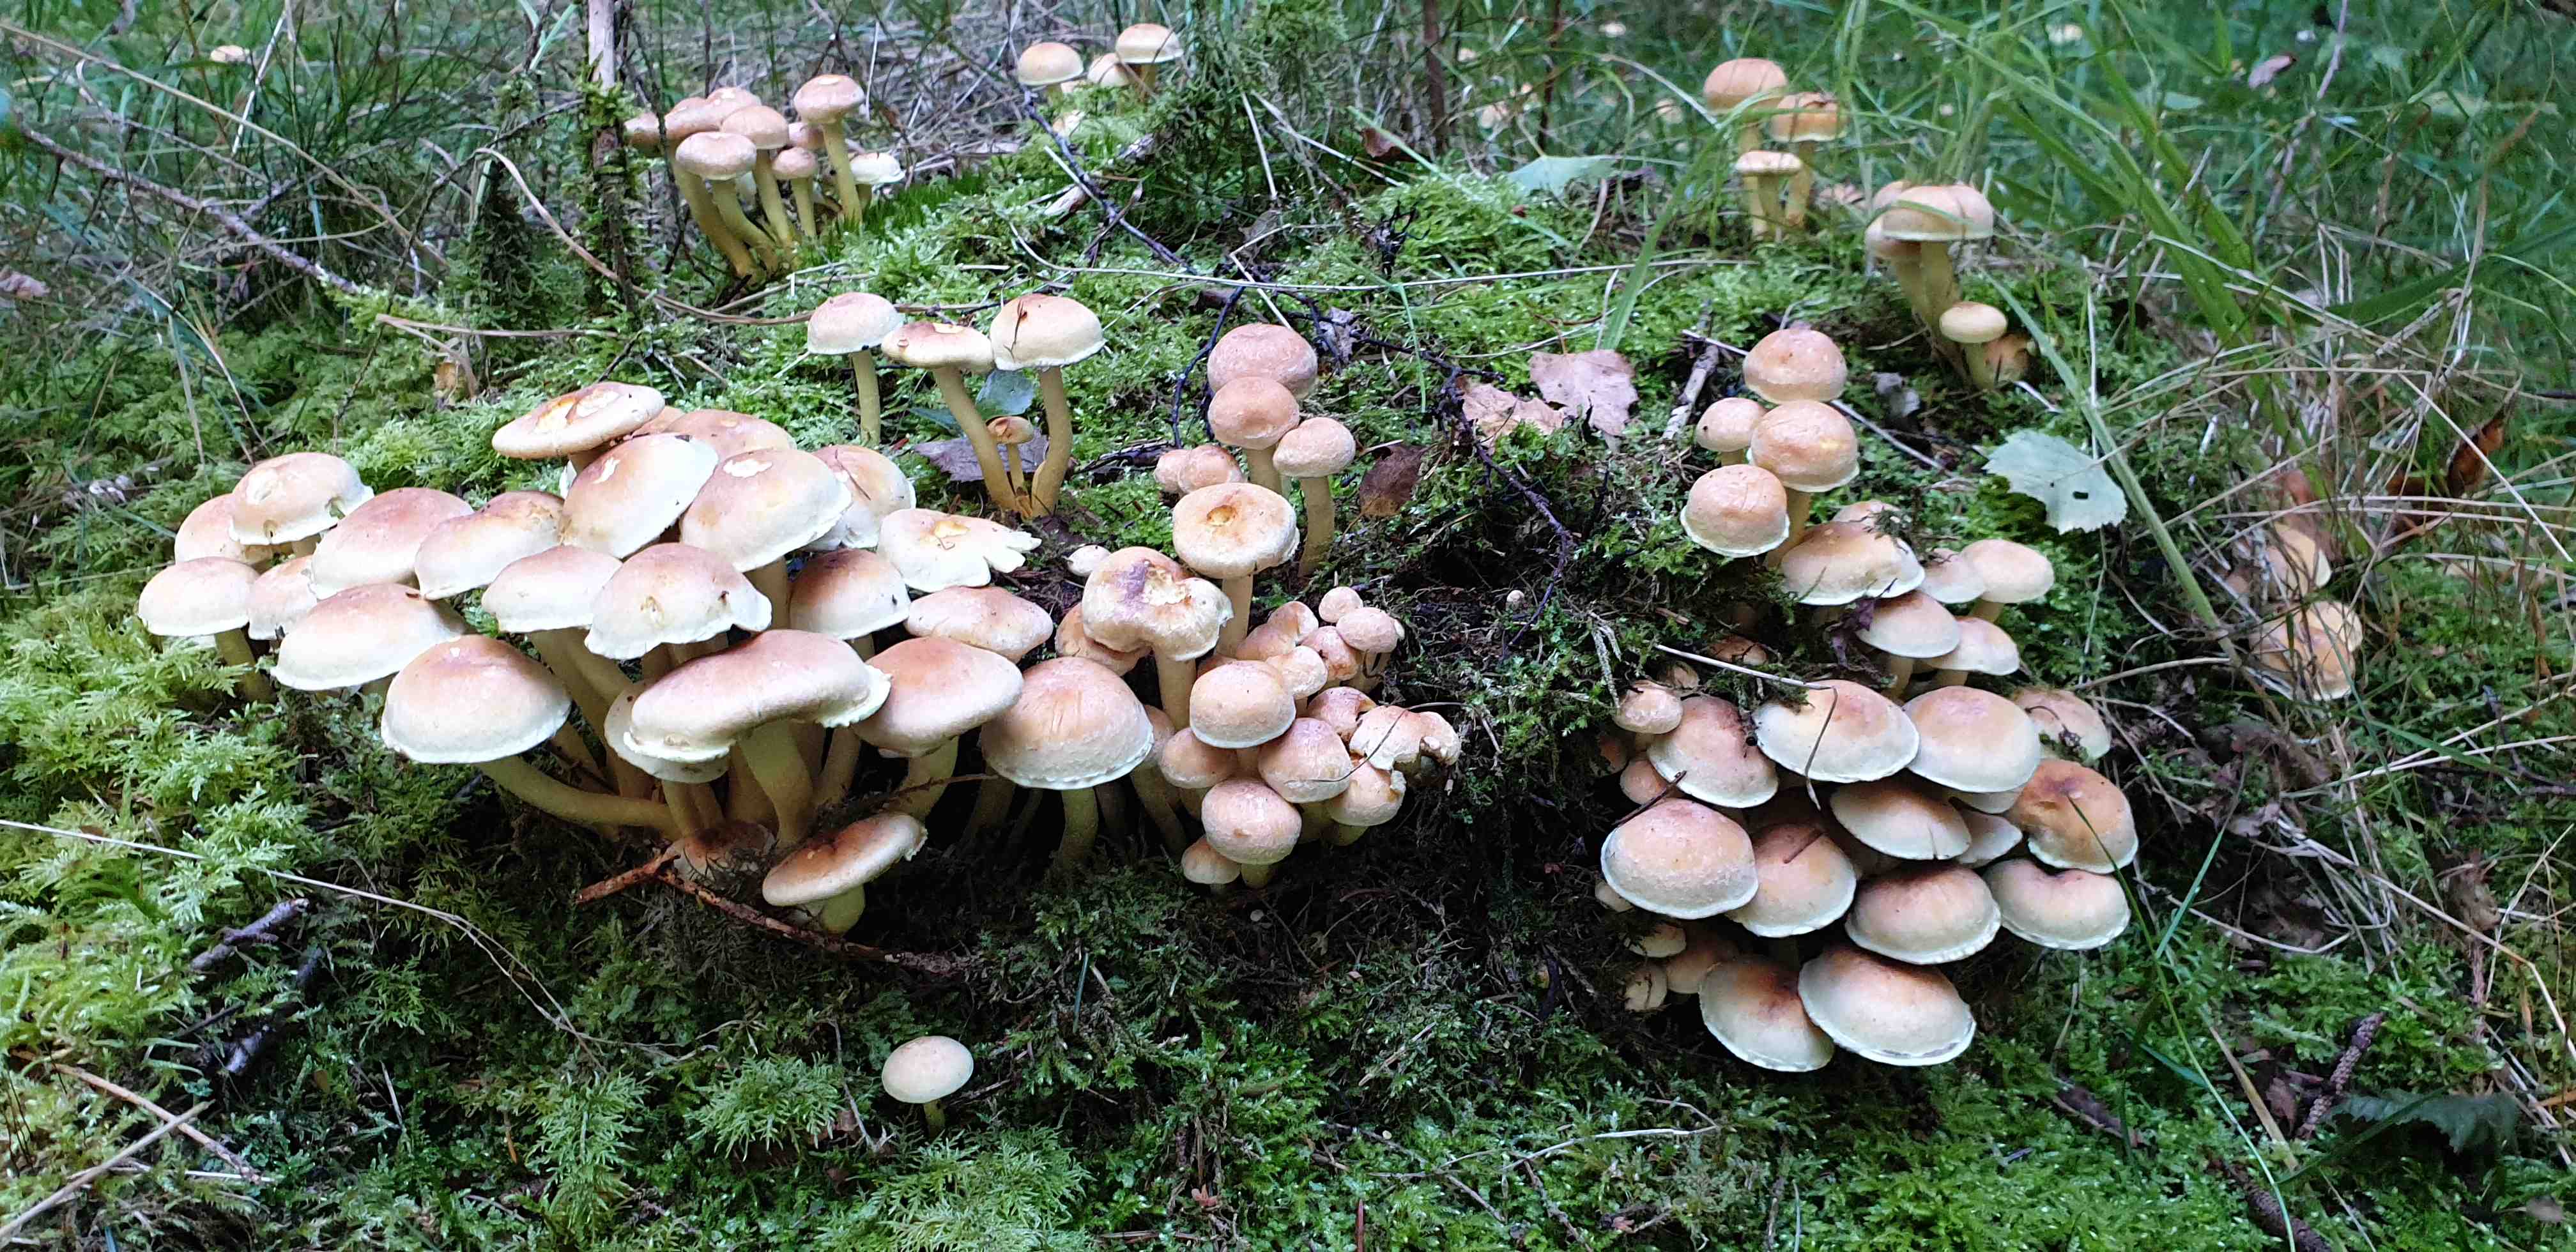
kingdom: Fungi
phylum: Basidiomycota
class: Agaricomycetes
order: Agaricales
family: Strophariaceae
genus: Hypholoma
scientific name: Hypholoma capnoides
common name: gran-svovlhat
